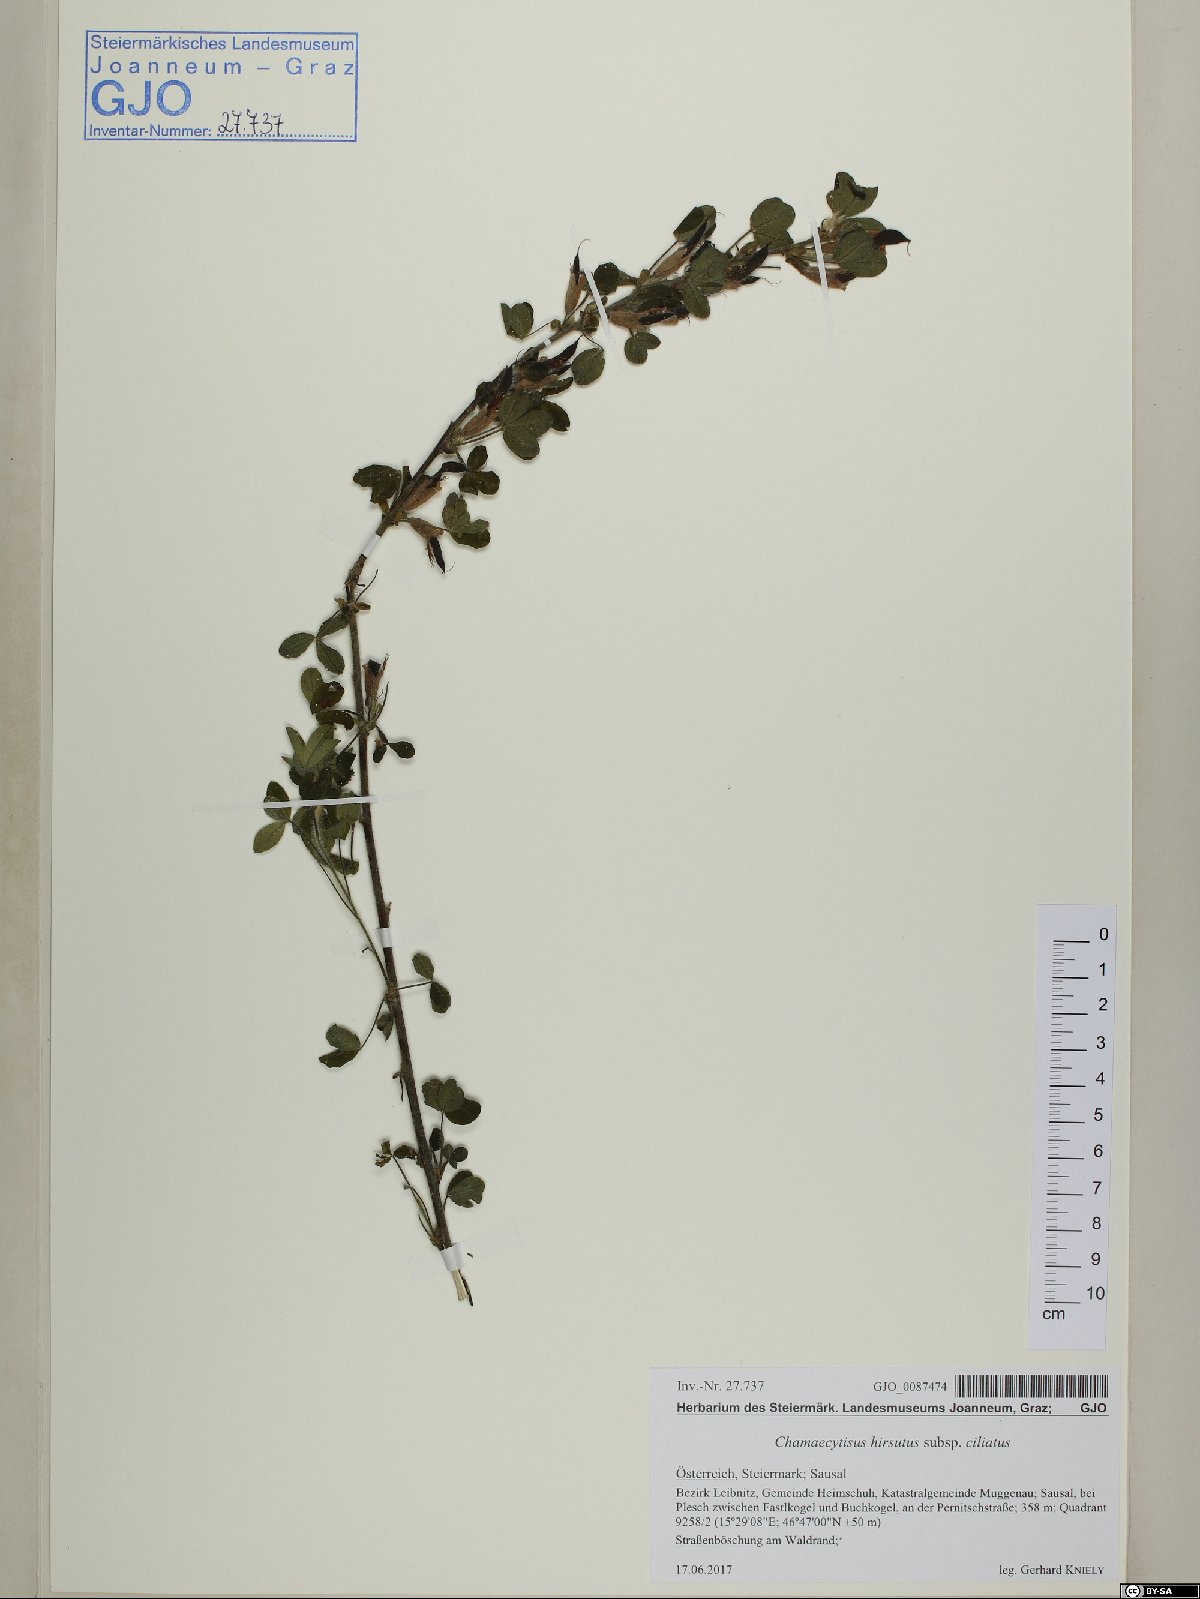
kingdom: Plantae
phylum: Tracheophyta
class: Magnoliopsida
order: Fabales
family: Fabaceae
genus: Chamaecytisus
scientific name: Chamaecytisus hirsutus
